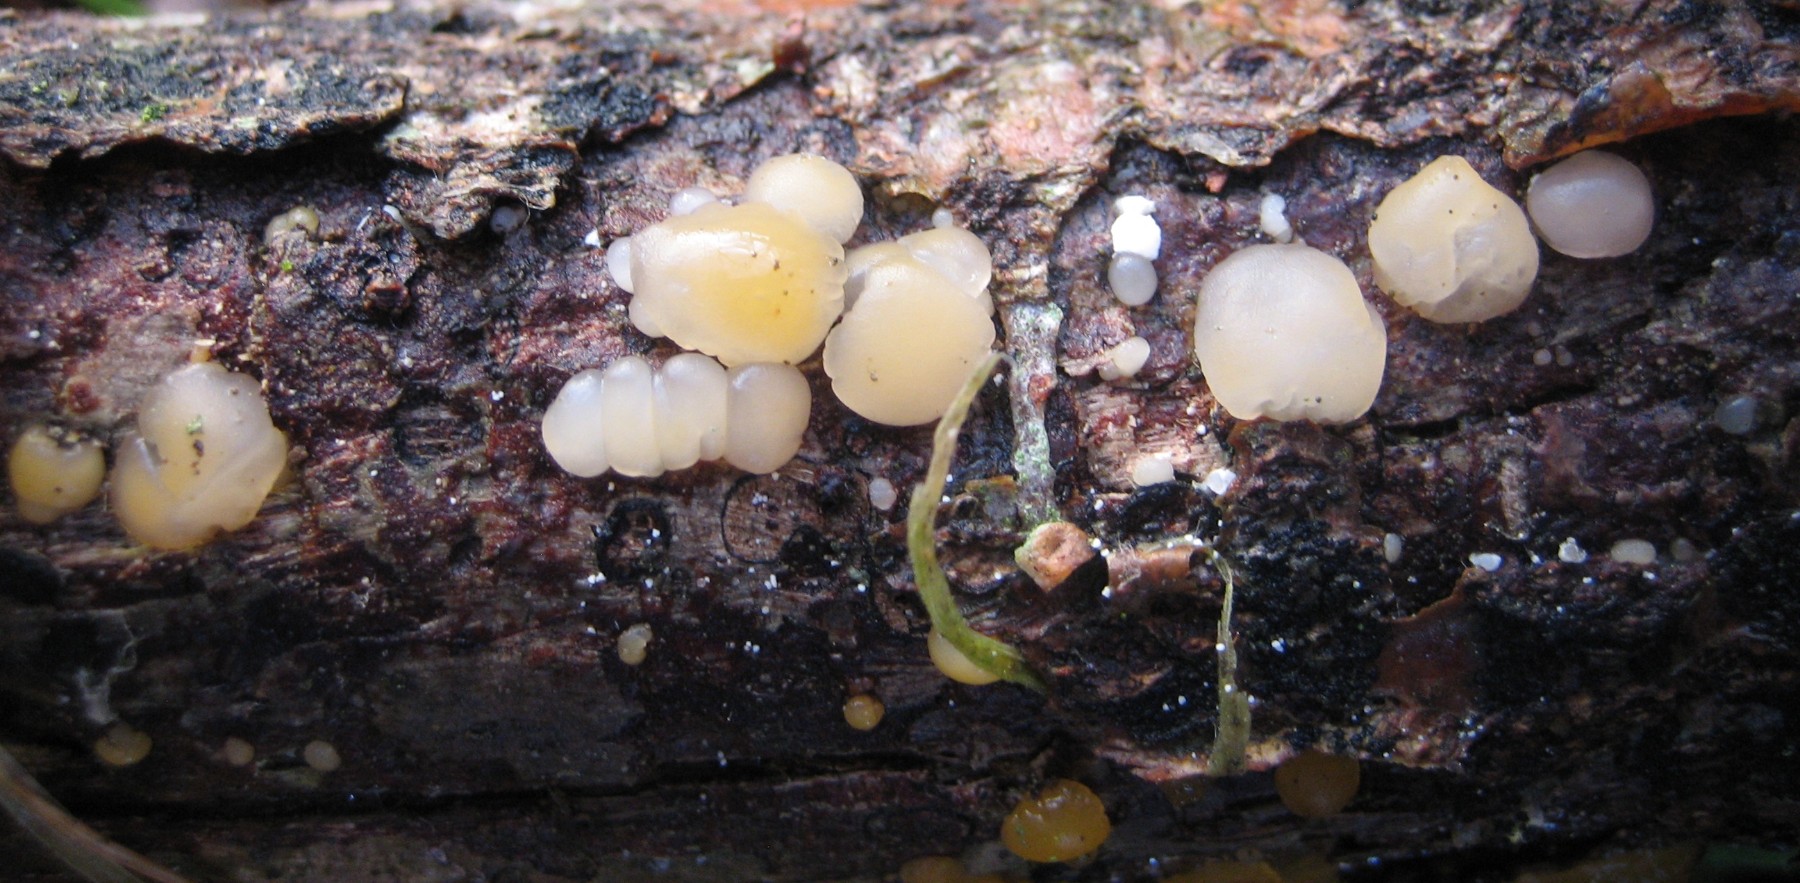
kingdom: Fungi
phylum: Basidiomycota
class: Dacrymycetes
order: Dacrymycetales
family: Dacrymycetaceae
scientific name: Dacrymycetaceae
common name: tåresvampfamilien
